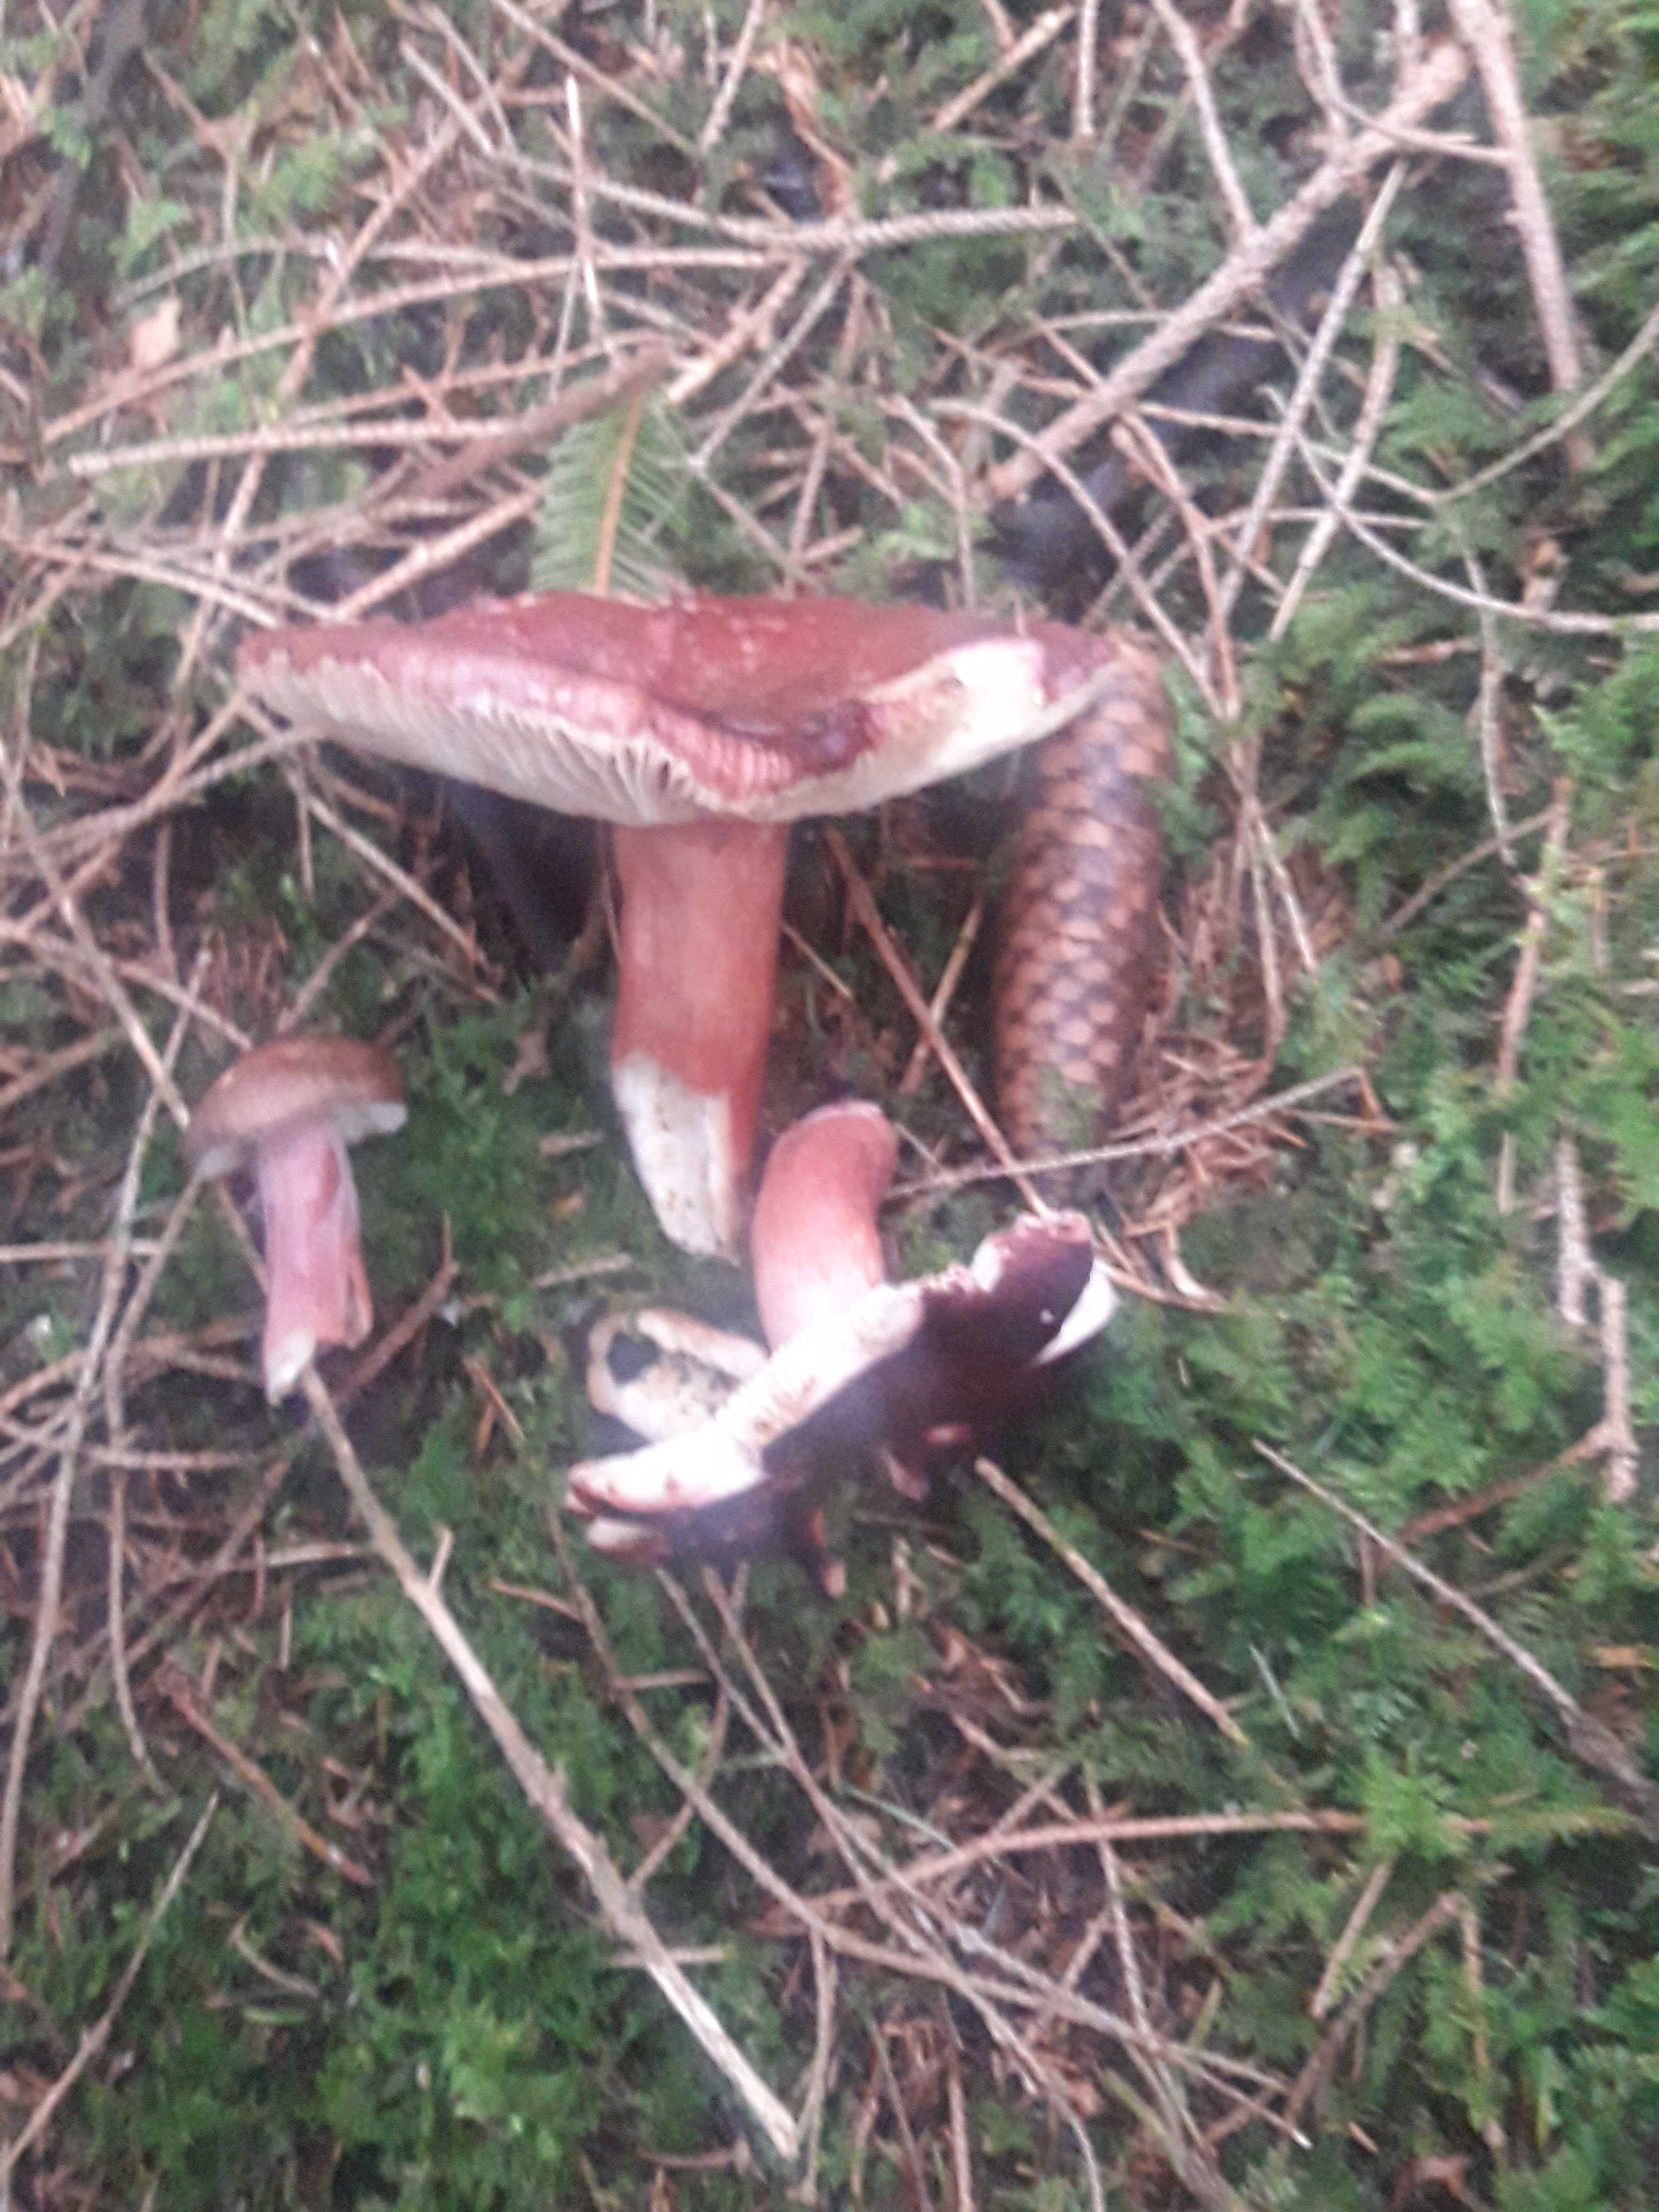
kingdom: Fungi
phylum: Basidiomycota
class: Agaricomycetes
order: Russulales
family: Russulaceae
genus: Russula
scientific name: Russula queletii
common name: Quélets skørhat
